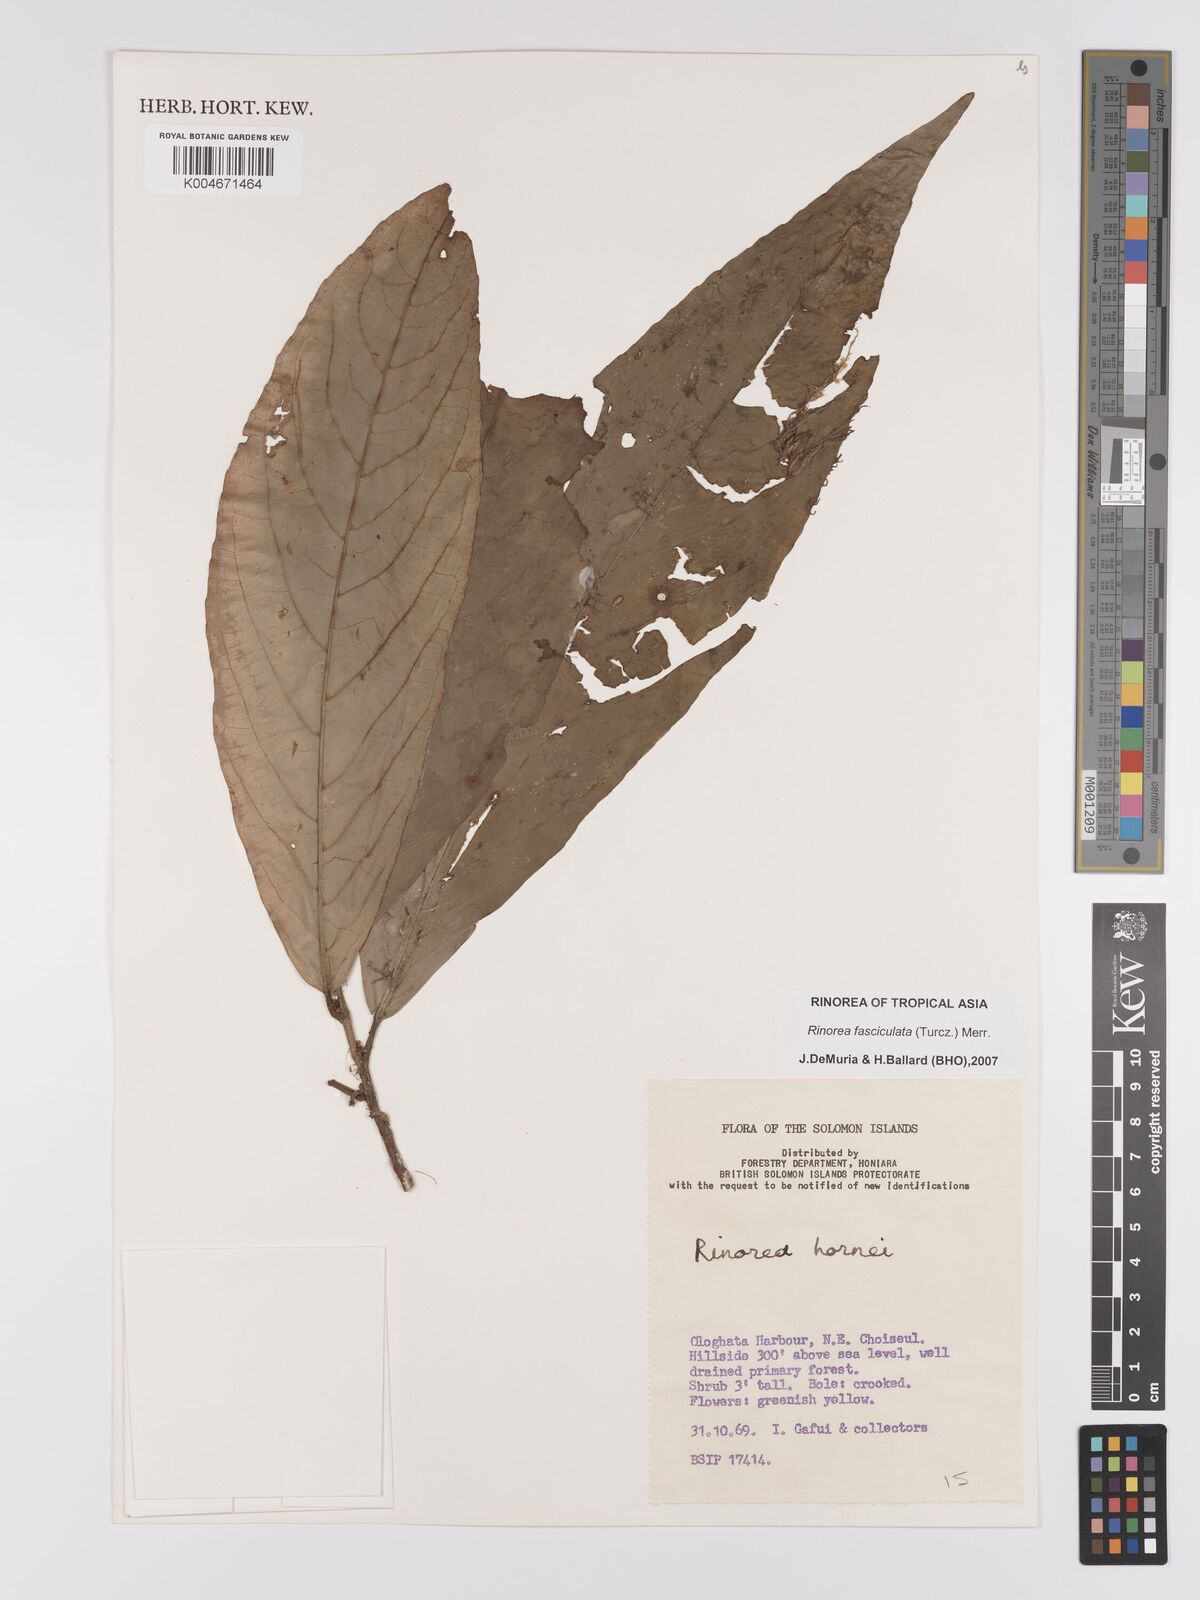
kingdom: Plantae
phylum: Tracheophyta
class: Magnoliopsida
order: Malpighiales
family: Violaceae
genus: Rinorea
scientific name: Rinorea bengalensis
